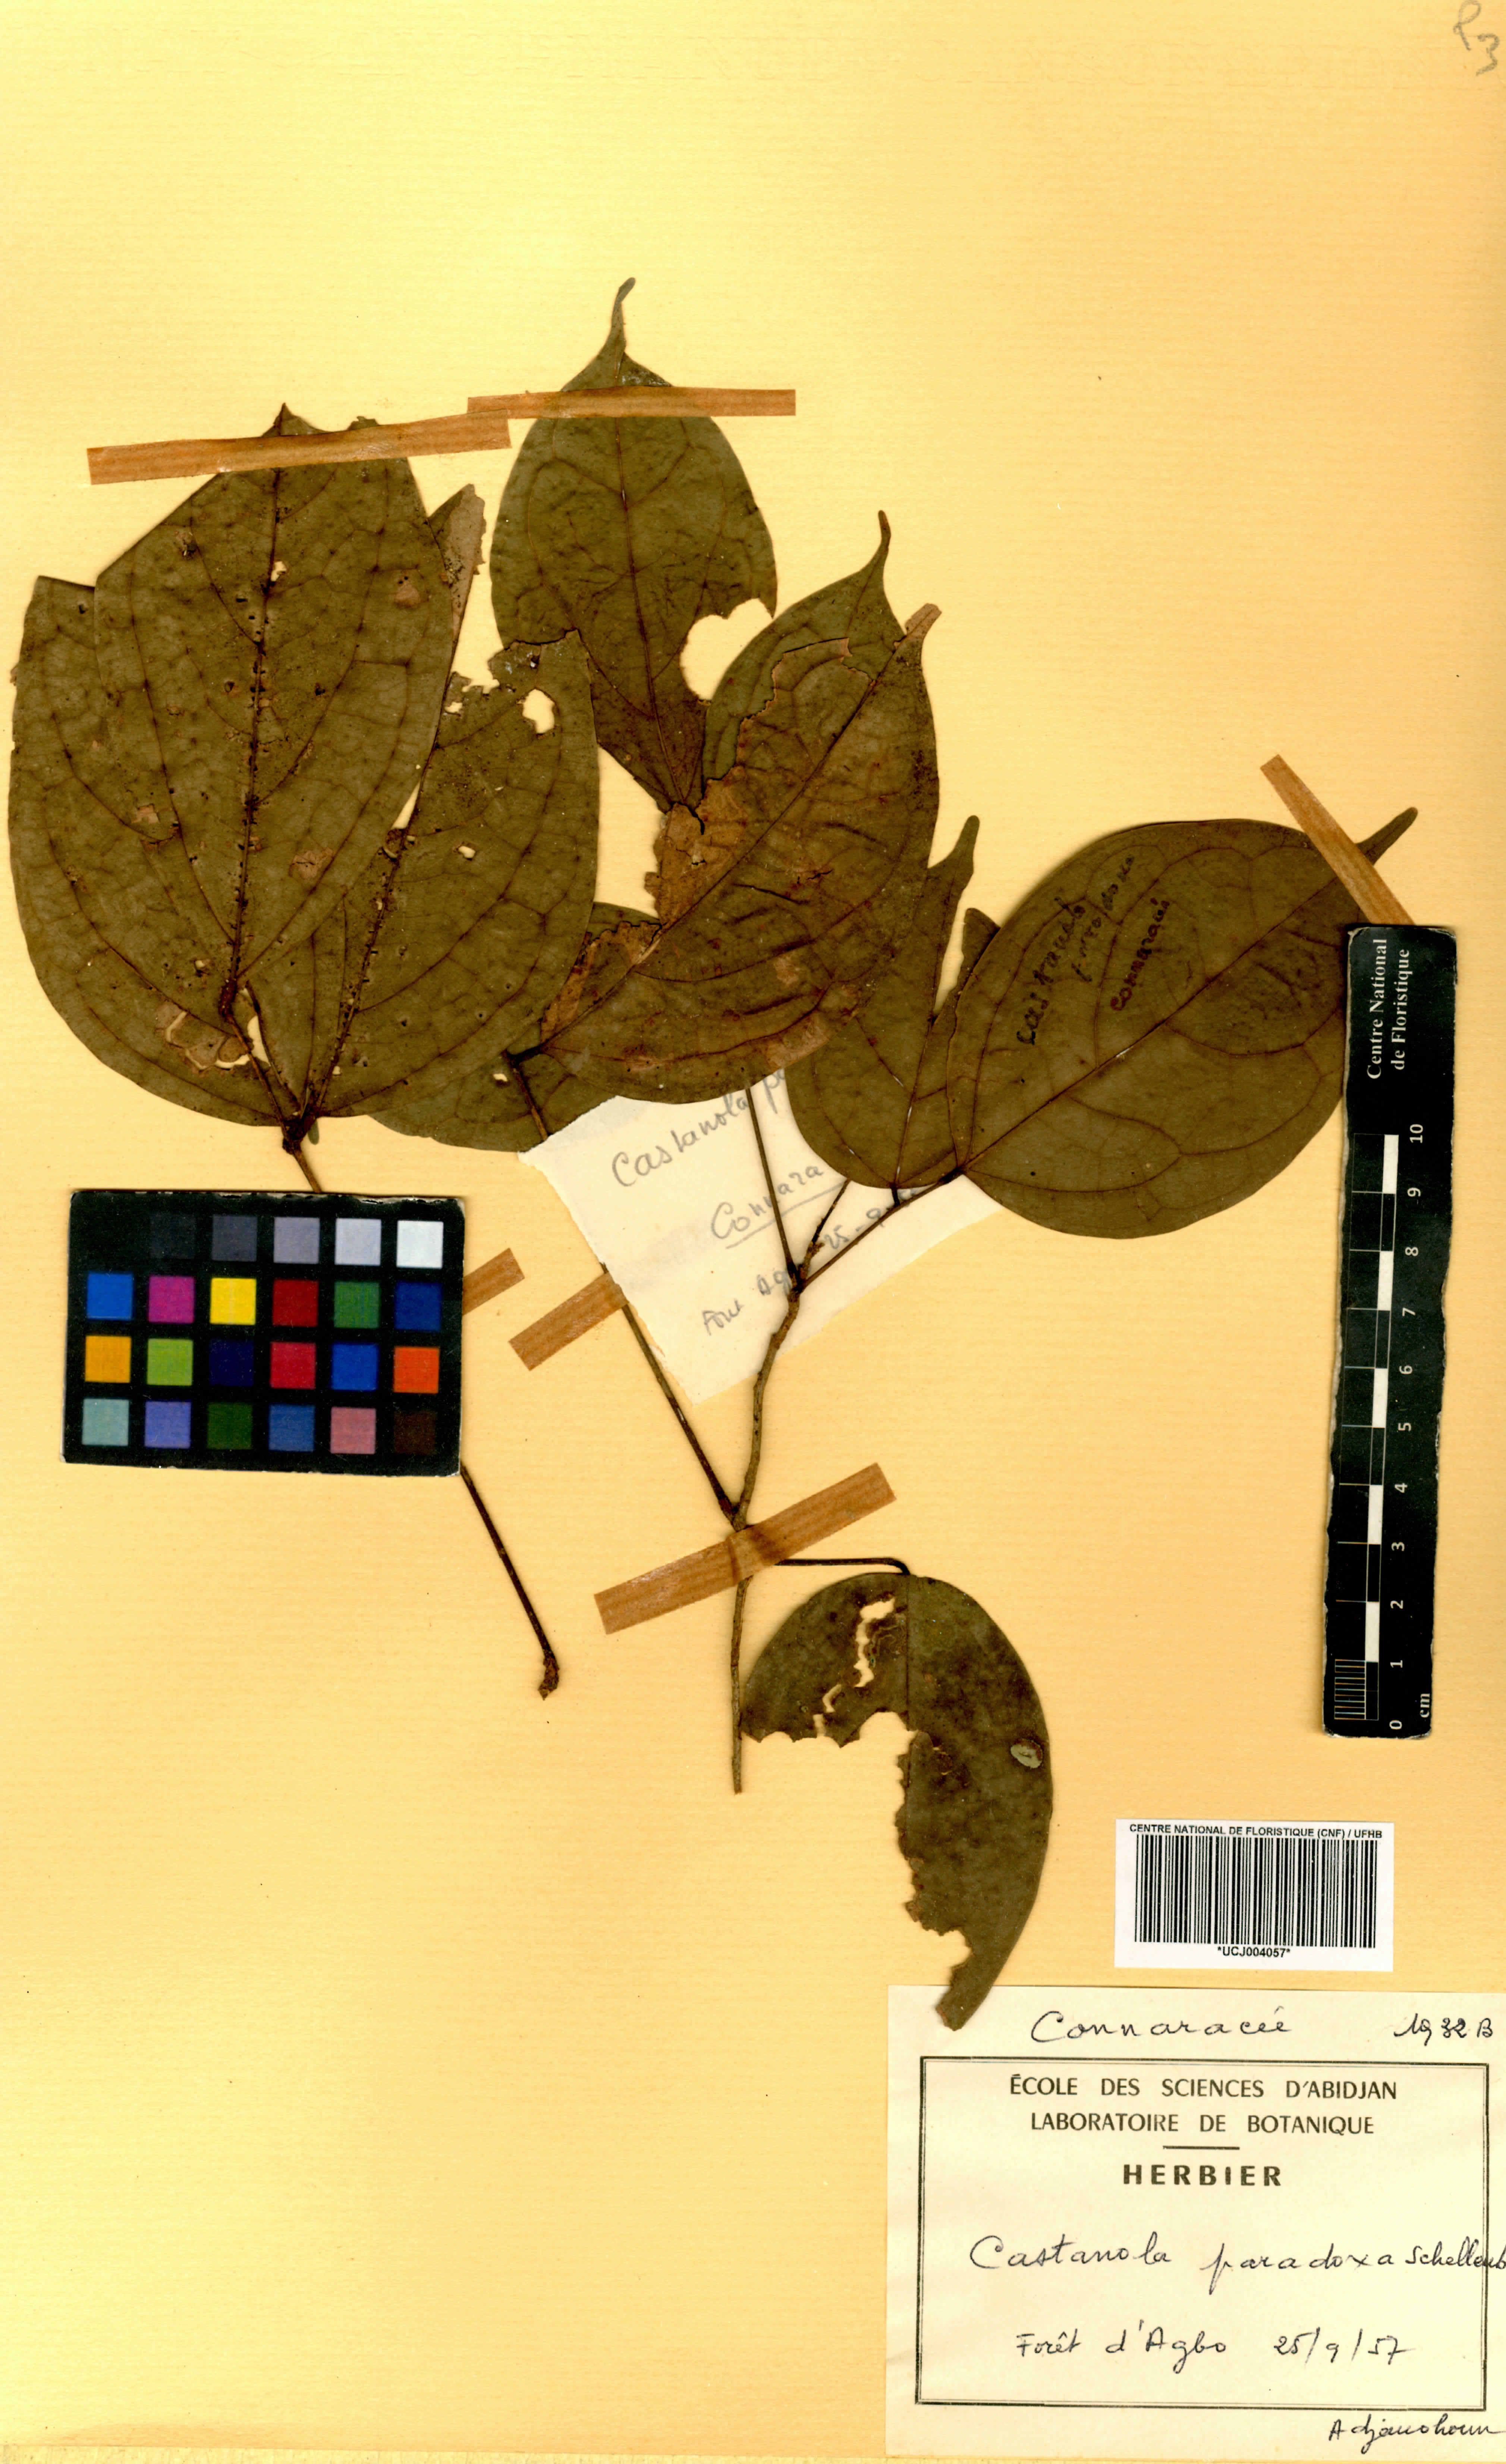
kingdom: Plantae
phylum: Tracheophyta
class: Magnoliopsida
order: Oxalidales
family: Connaraceae
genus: Castanola
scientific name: Castanola paradoxa
